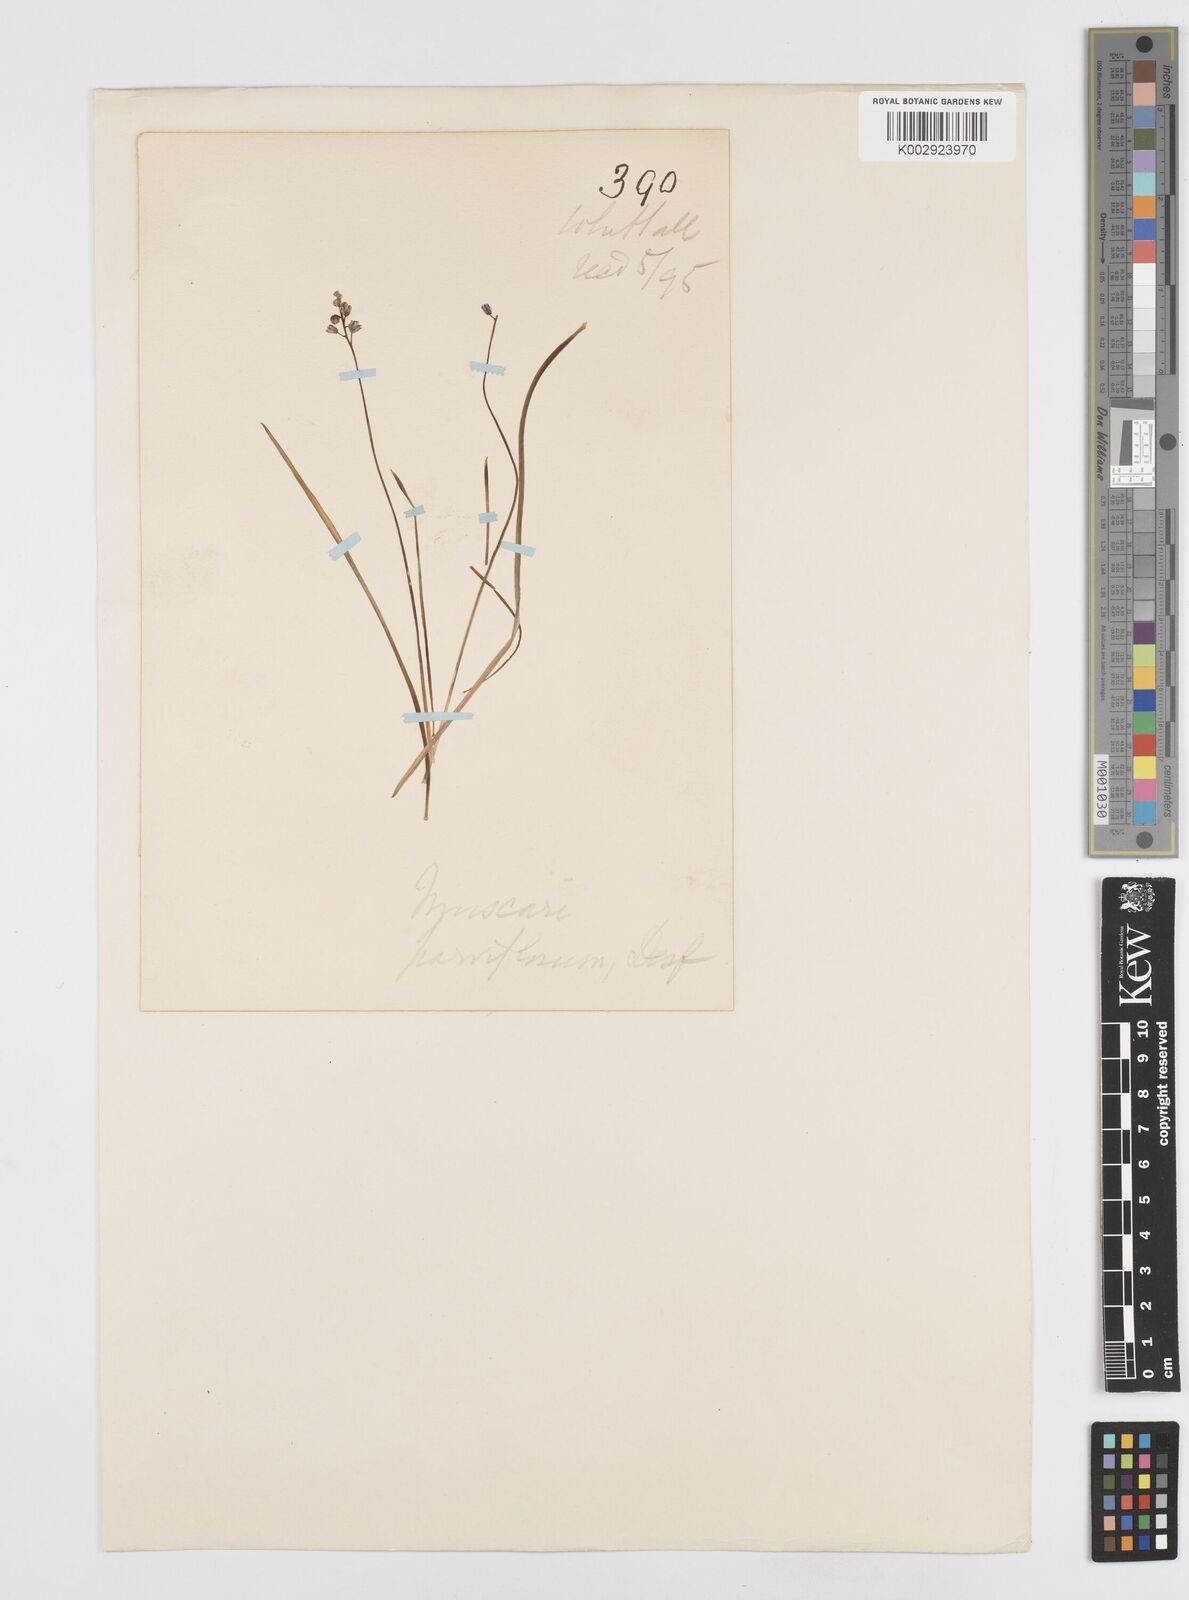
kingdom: Plantae
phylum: Tracheophyta
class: Liliopsida
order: Asparagales
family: Asparagaceae
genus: Muscari
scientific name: Muscari parviflorum
